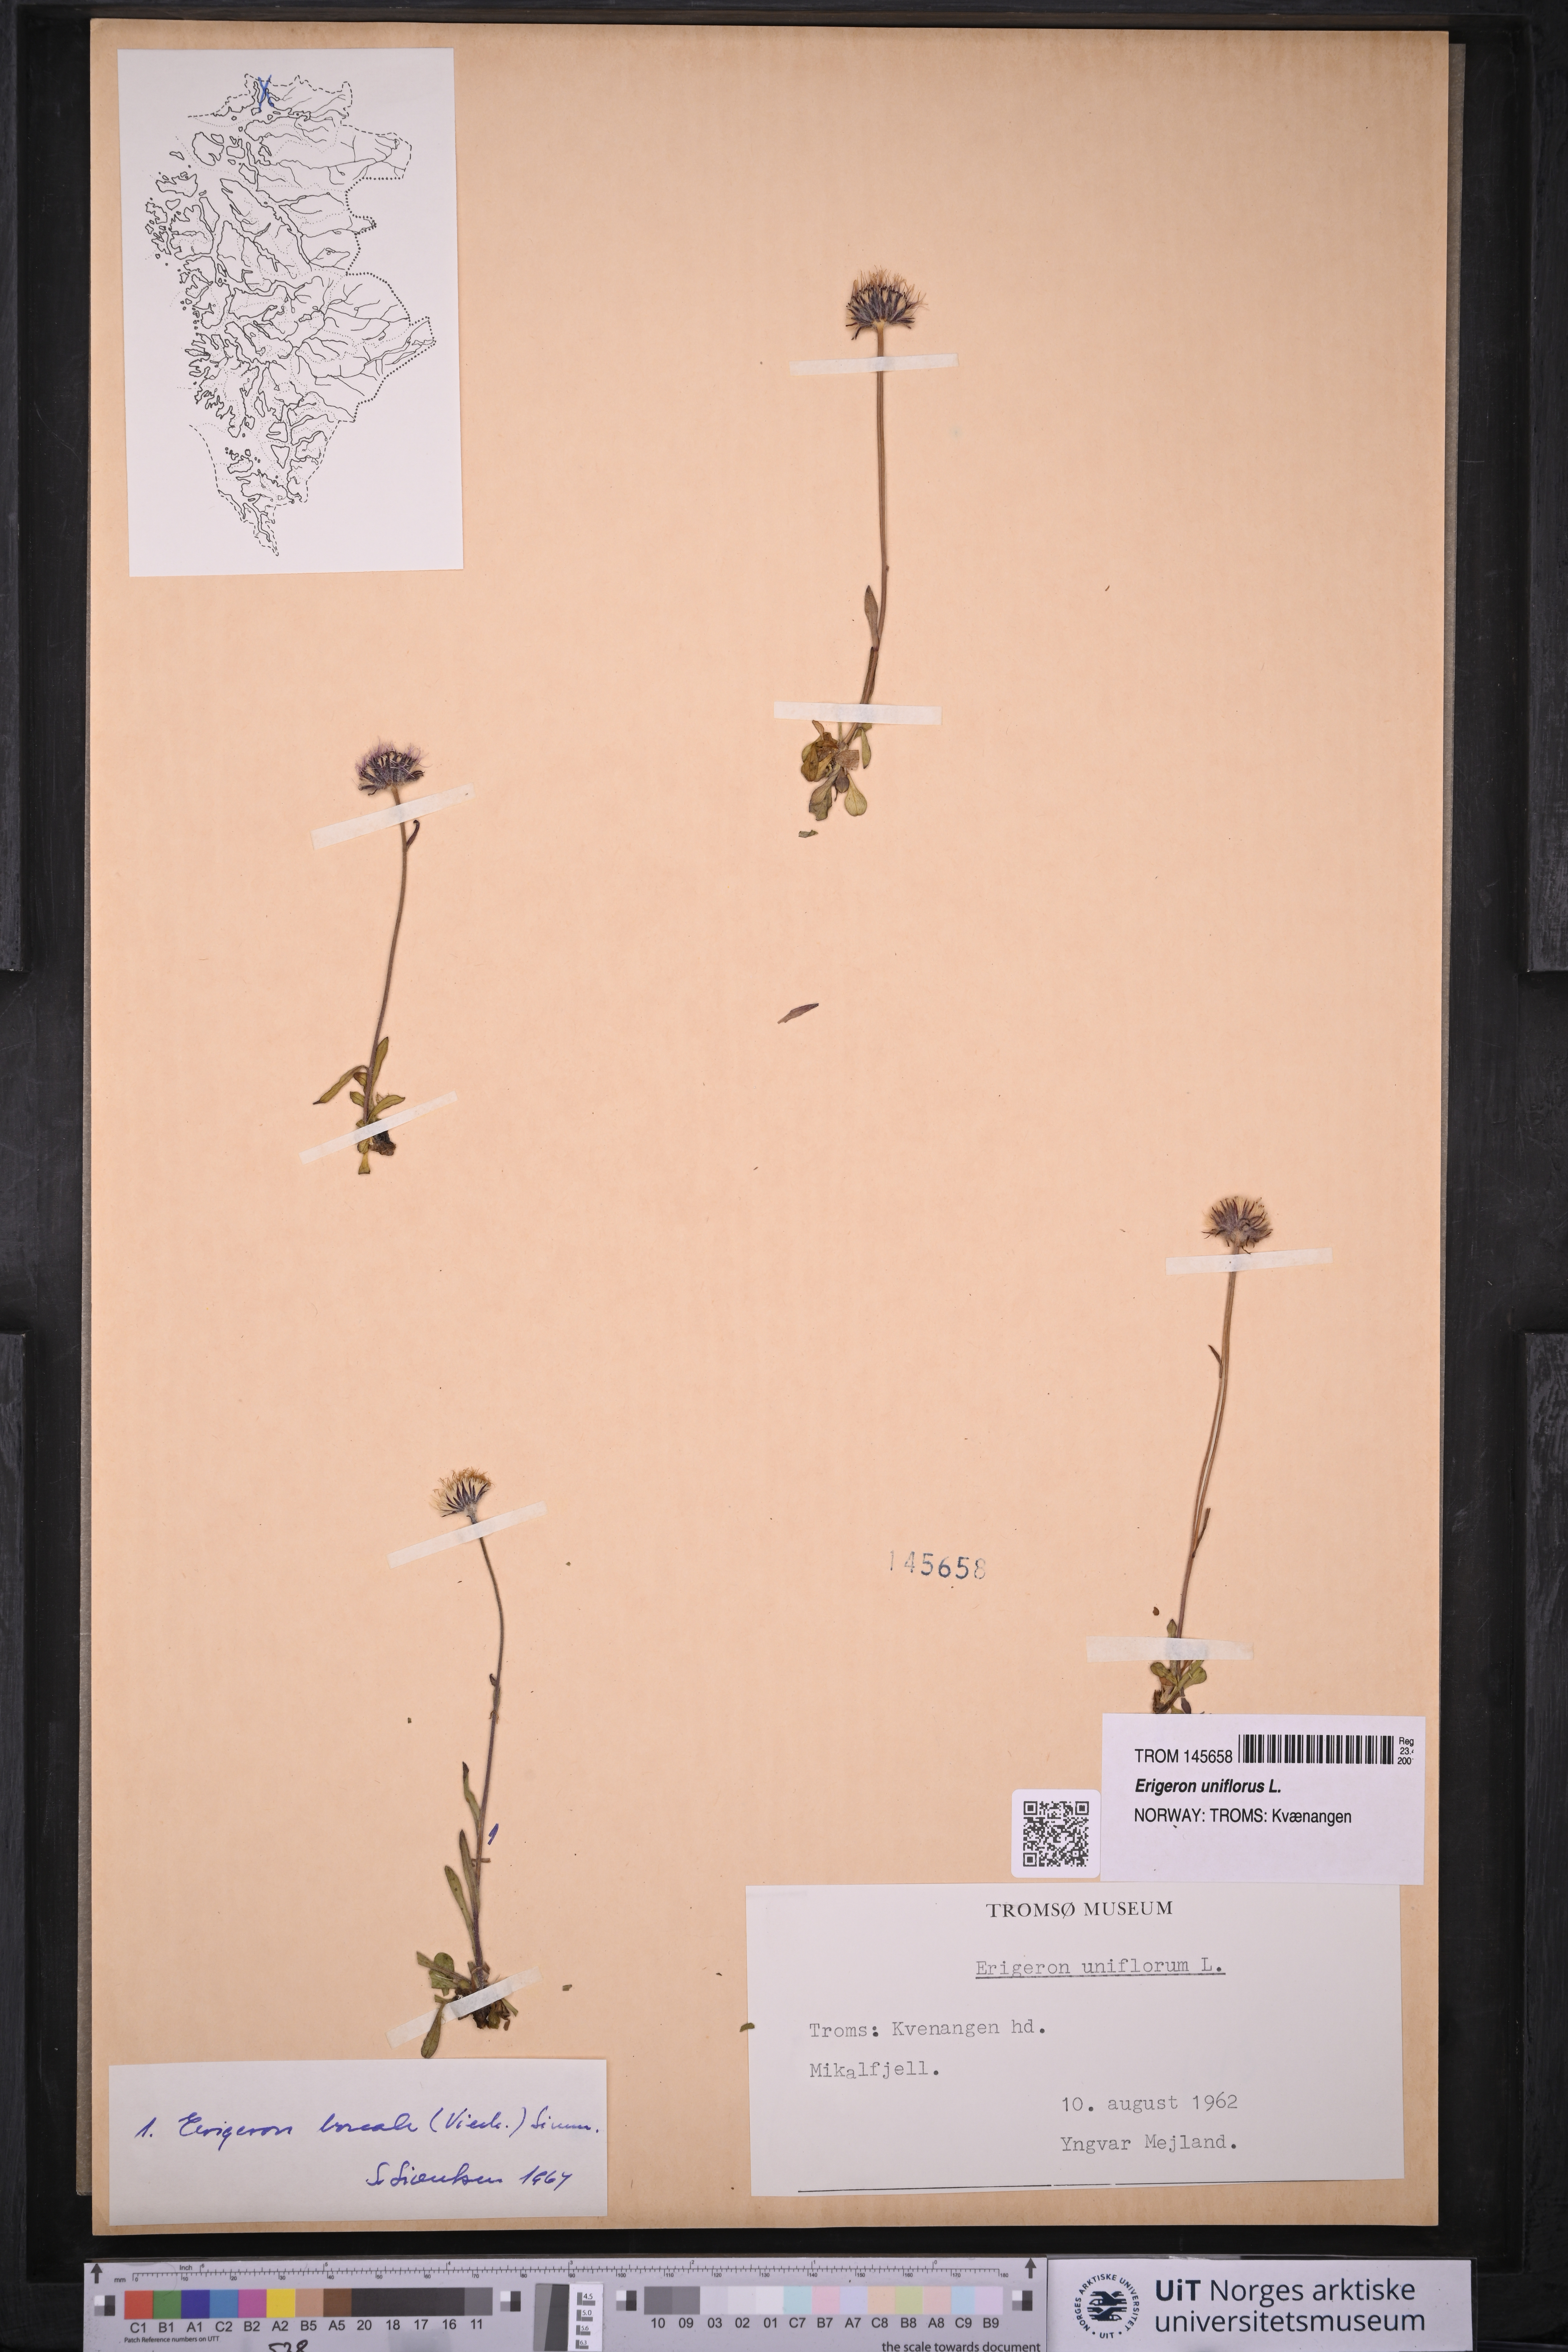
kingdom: Plantae
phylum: Tracheophyta
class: Magnoliopsida
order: Asterales
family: Asteraceae
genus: Erigeron
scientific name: Erigeron uniflorus
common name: Northern daisy
